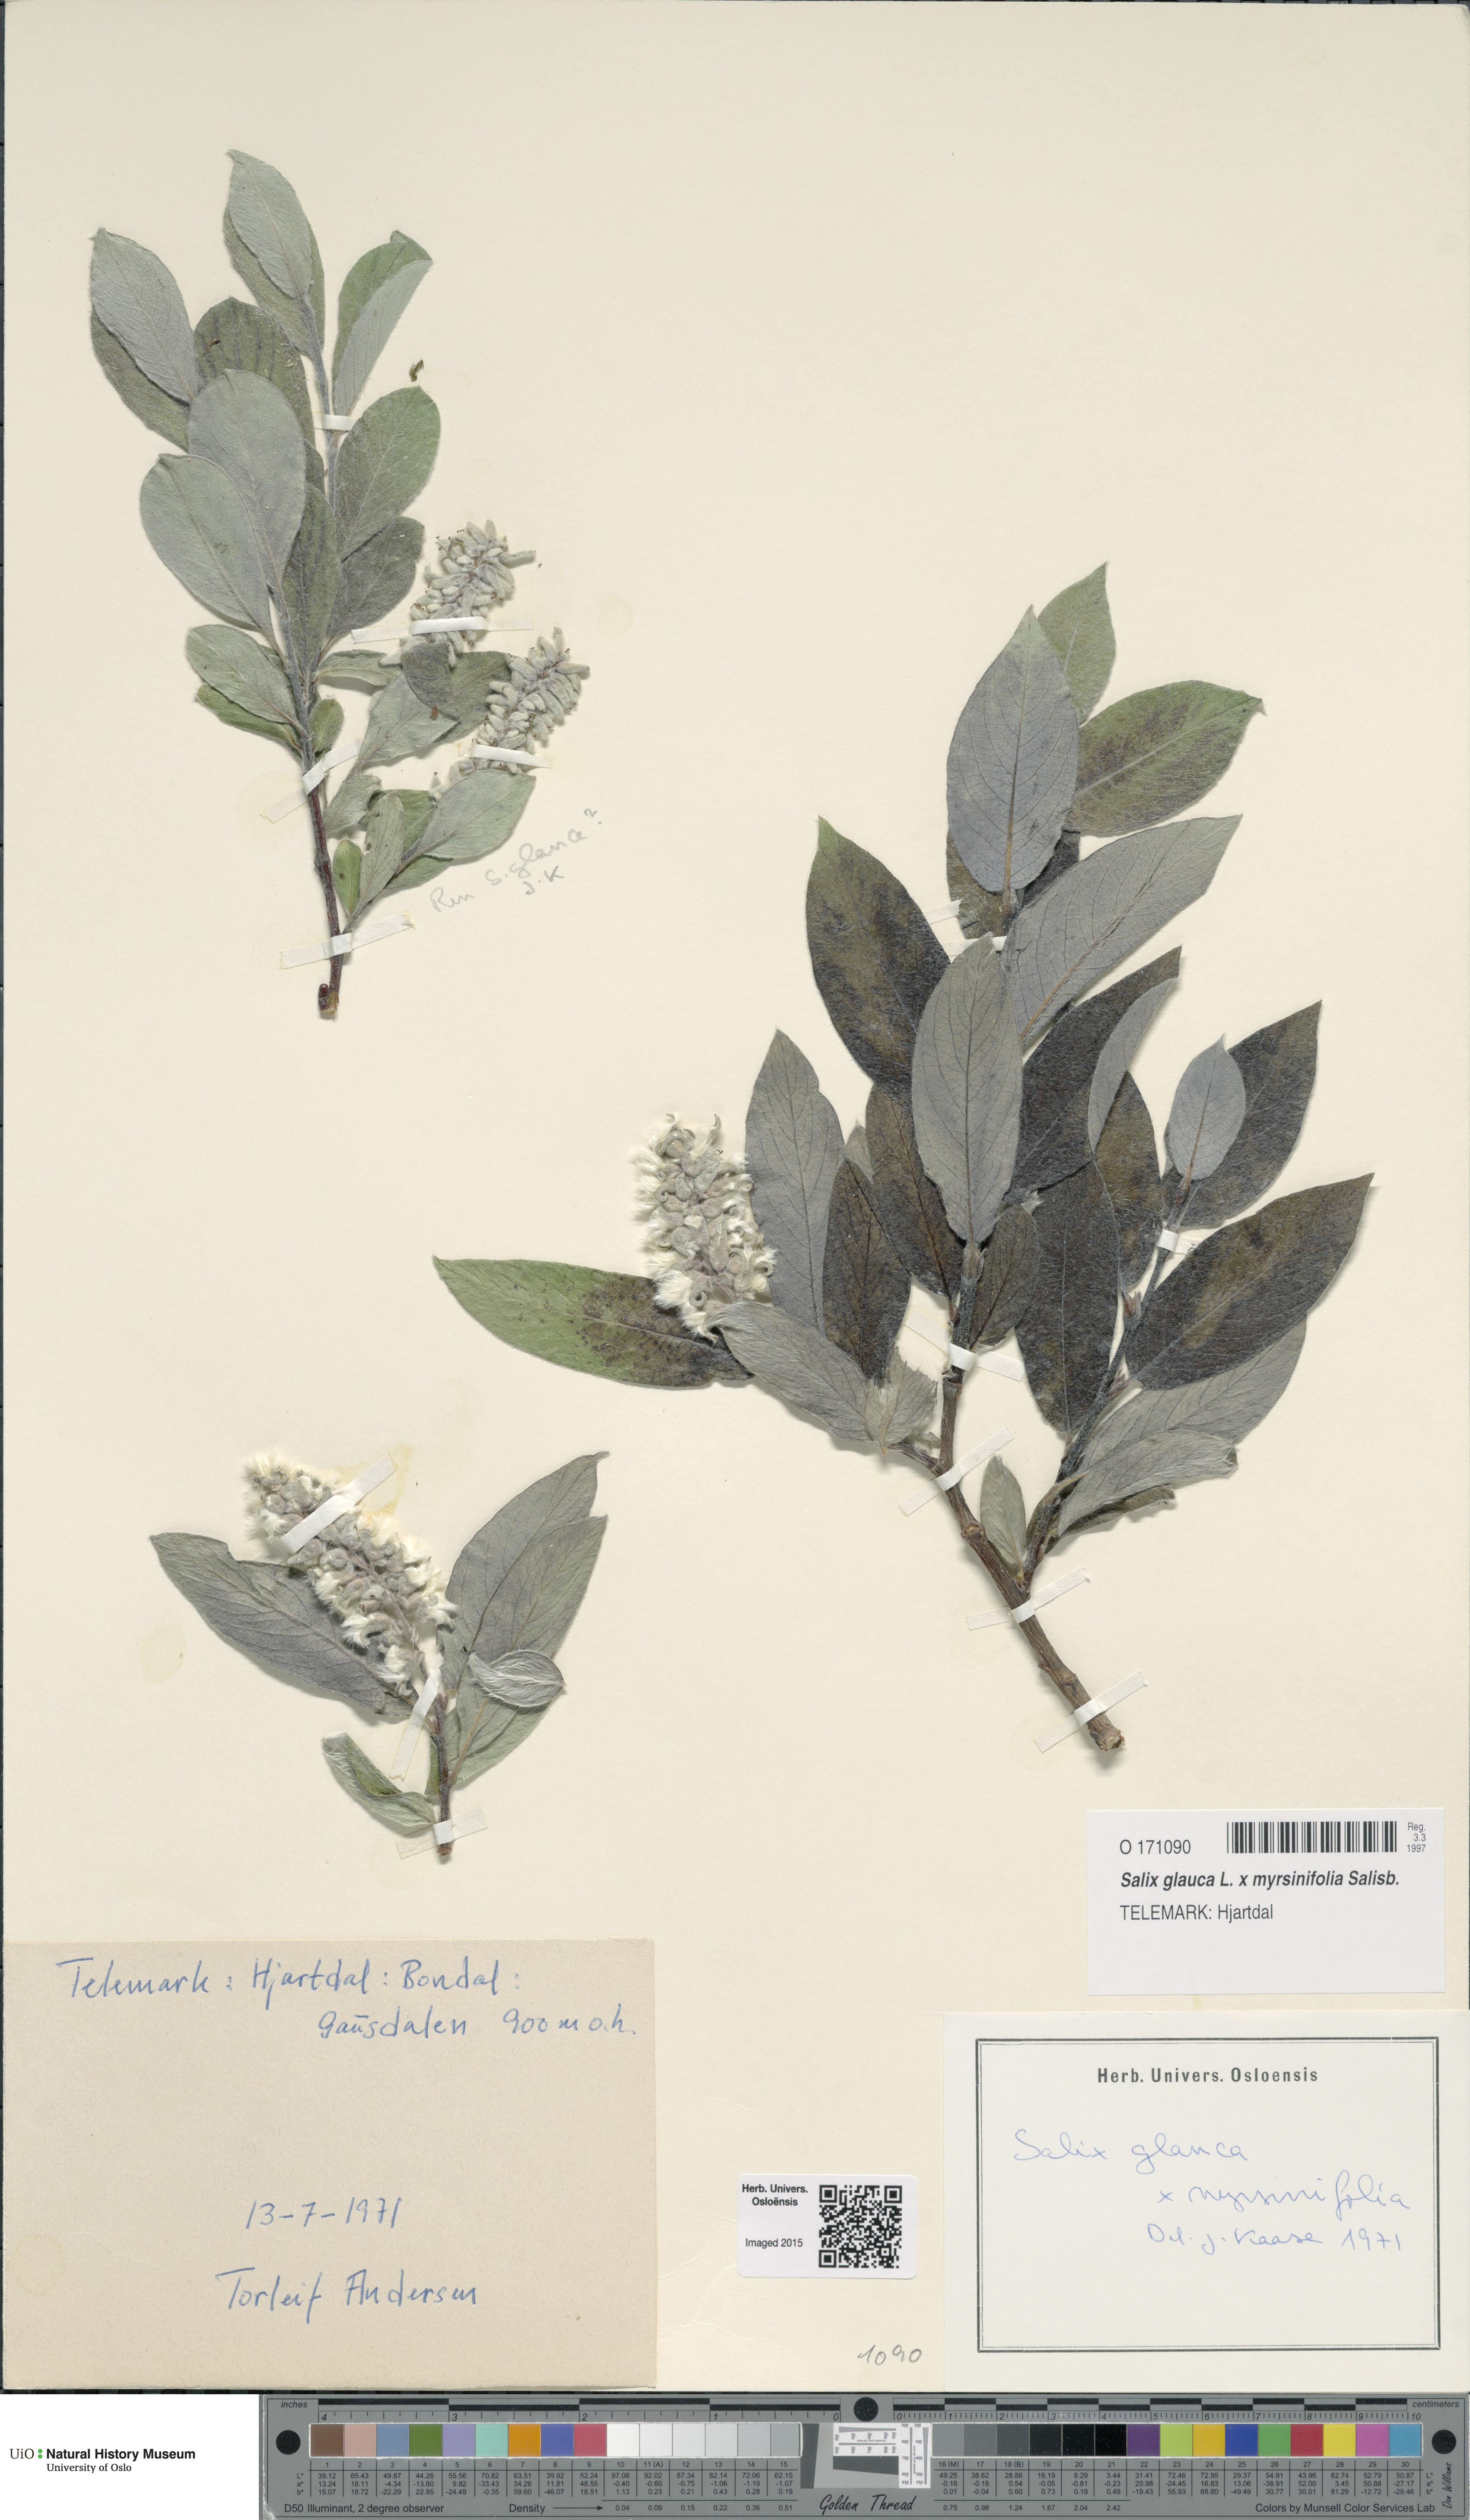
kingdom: Plantae
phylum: Tracheophyta
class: Magnoliopsida
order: Malpighiales
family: Salicaceae
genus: Salix
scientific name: Salix
